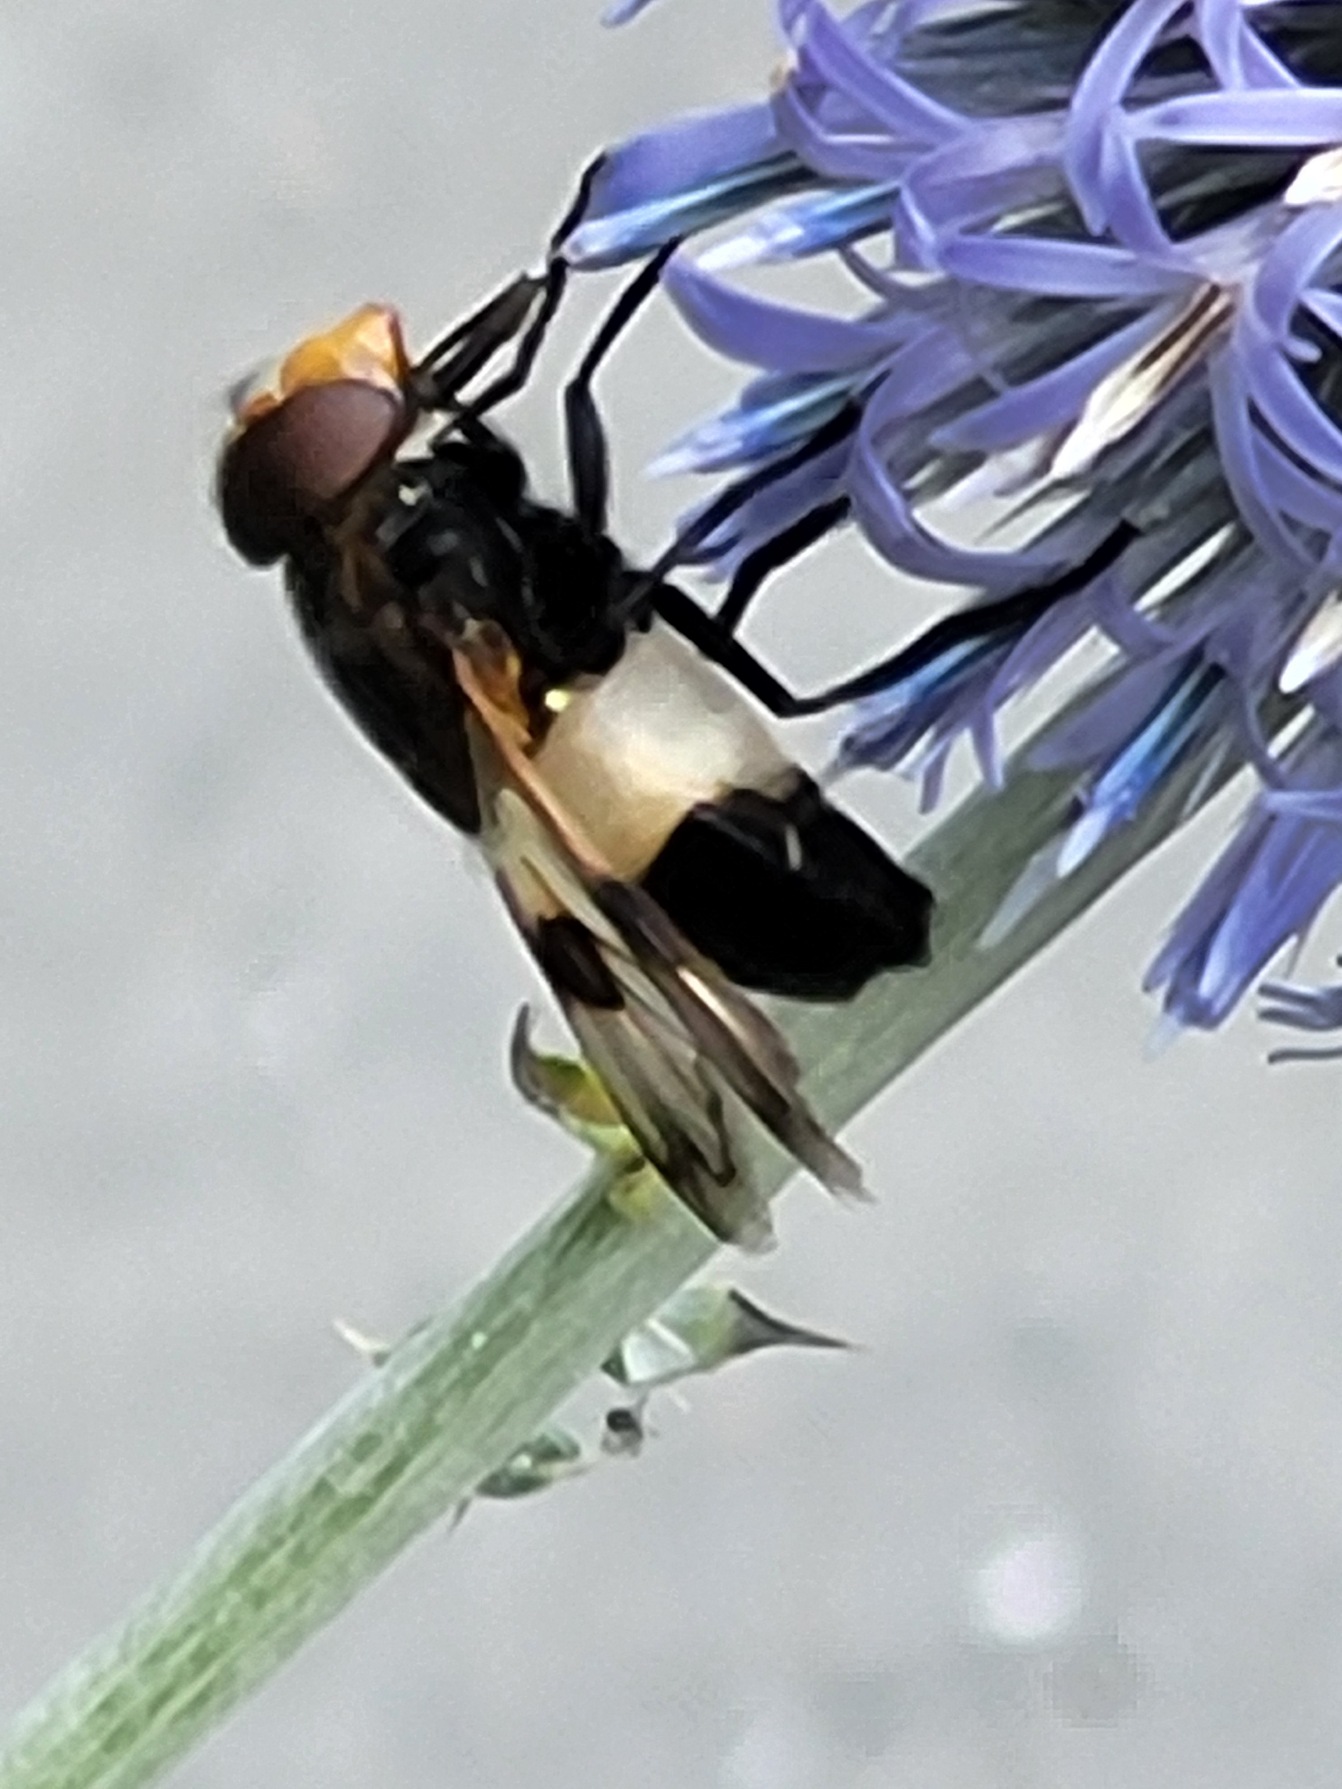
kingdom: Animalia
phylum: Arthropoda
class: Insecta
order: Diptera
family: Syrphidae
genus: Volucella
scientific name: Volucella pellucens
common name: Hvidbåndet humlesvirreflue
